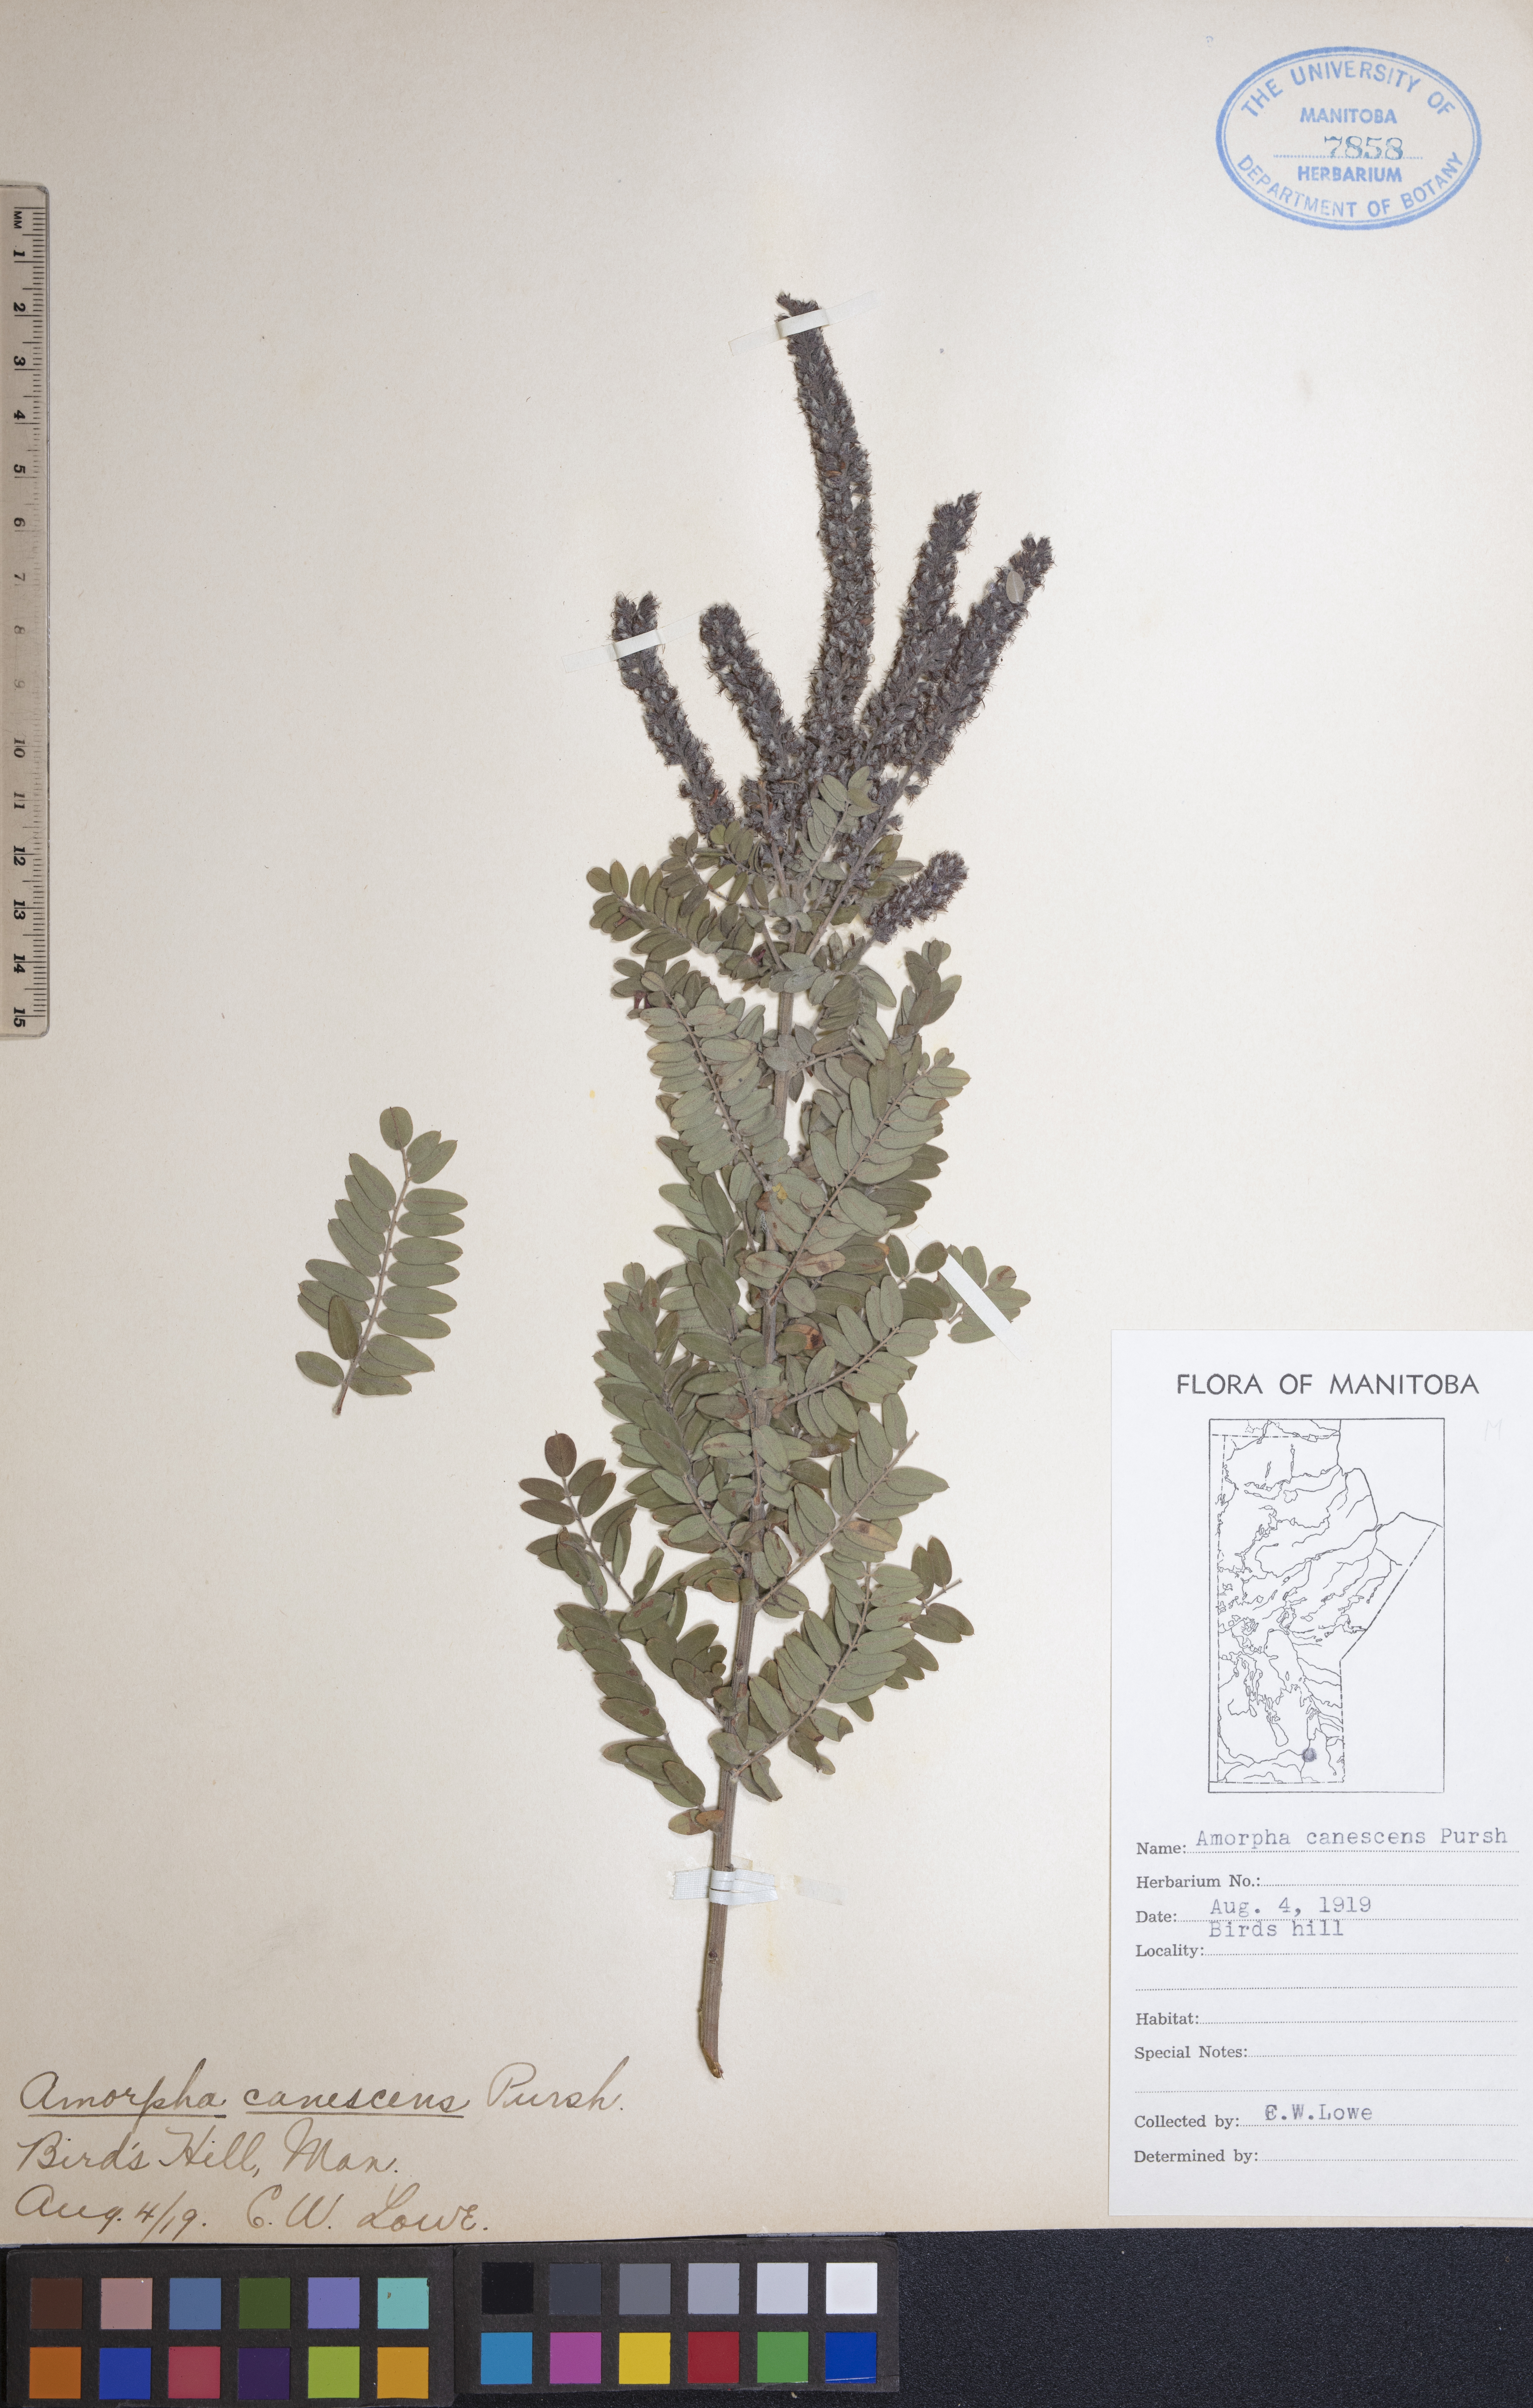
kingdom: Plantae
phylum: Tracheophyta
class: Magnoliopsida
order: Fabales
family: Fabaceae
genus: Amorpha
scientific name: Amorpha canescens
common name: Leadplant
